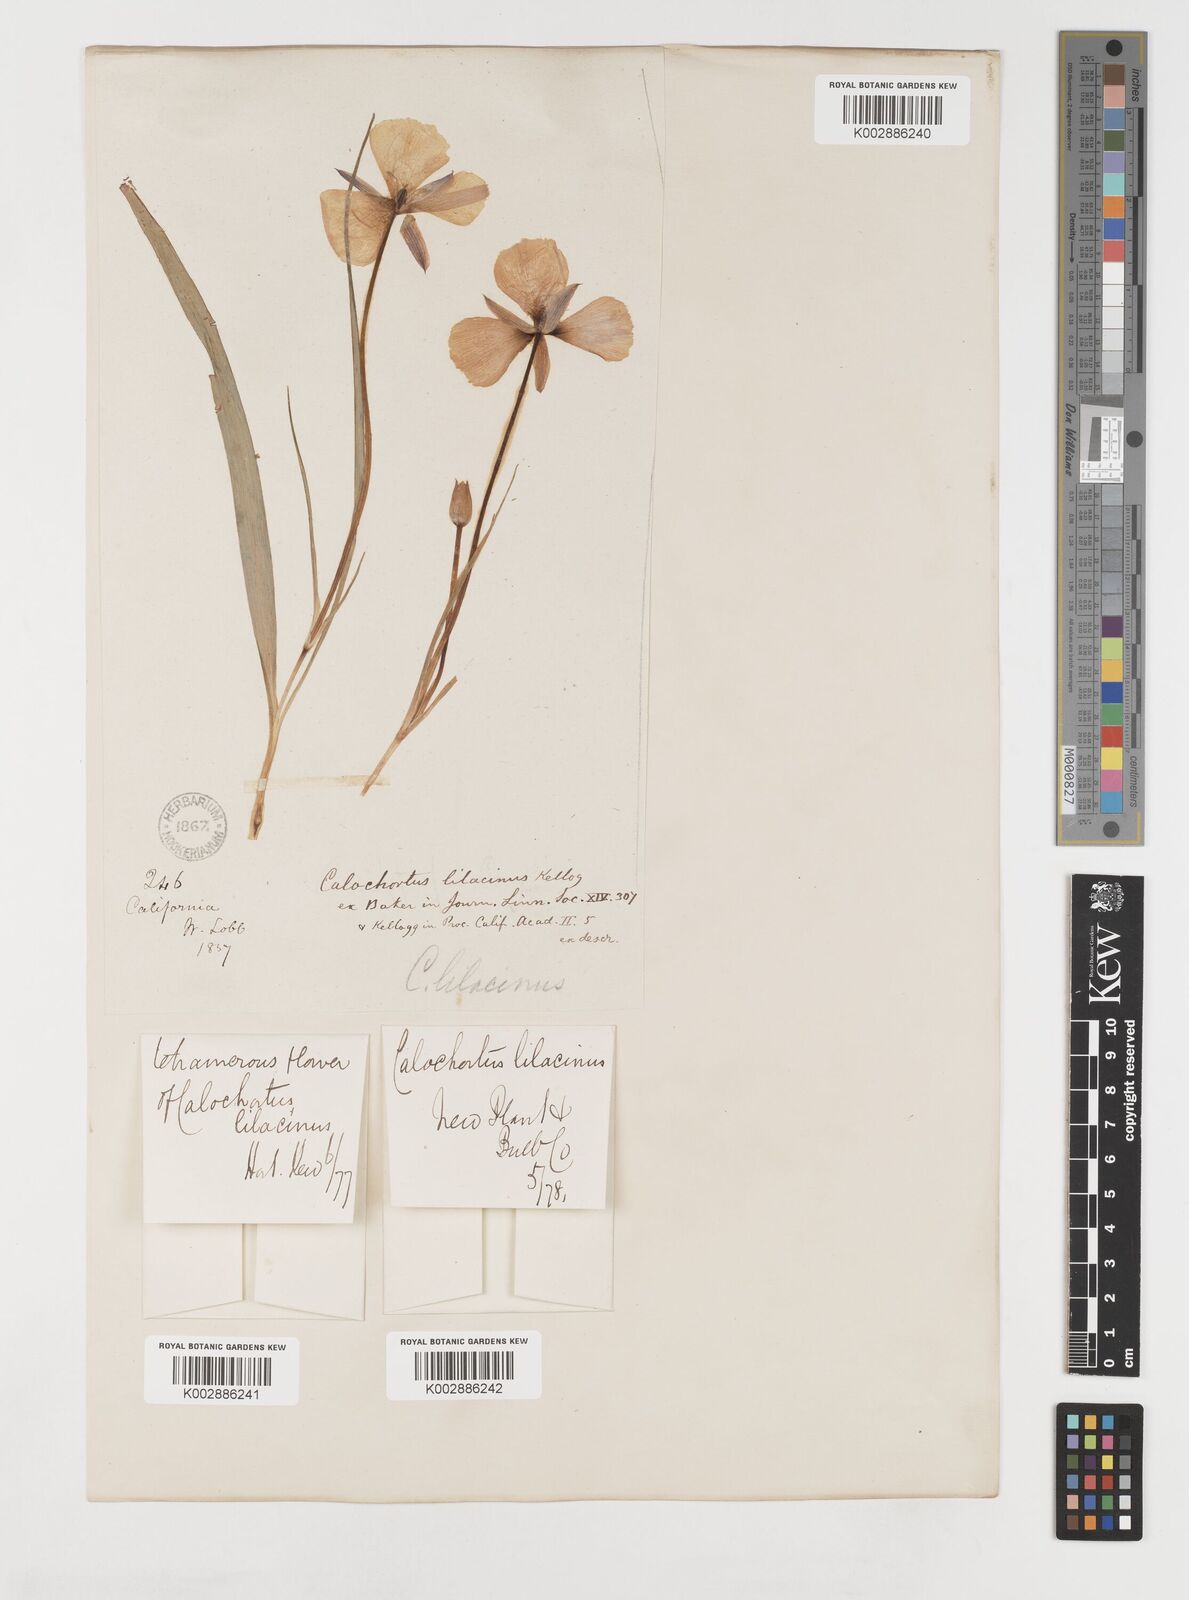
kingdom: Plantae
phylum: Tracheophyta
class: Liliopsida
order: Liliales
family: Liliaceae
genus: Calochortus
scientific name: Calochortus uniflorus
